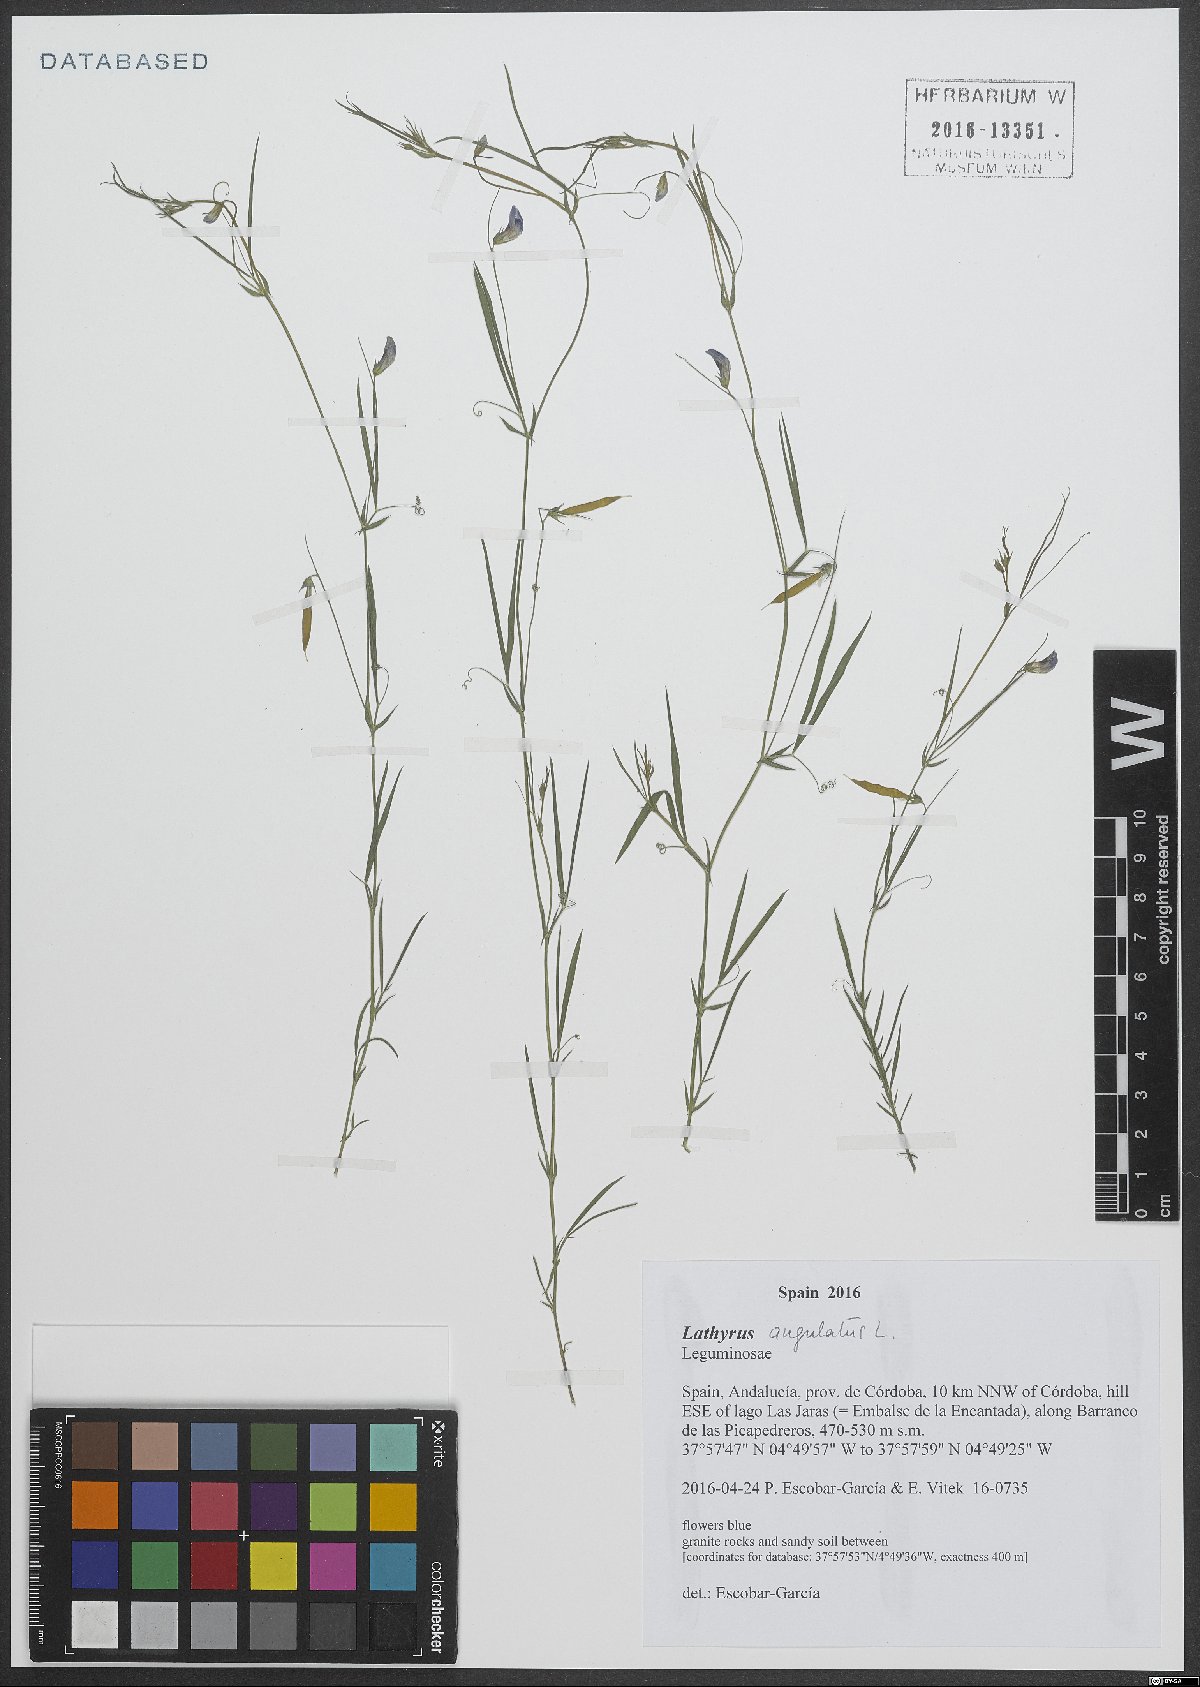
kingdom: Plantae
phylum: Tracheophyta
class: Magnoliopsida
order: Fabales
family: Fabaceae
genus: Lathyrus
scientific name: Lathyrus angulatus
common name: Angular pea
